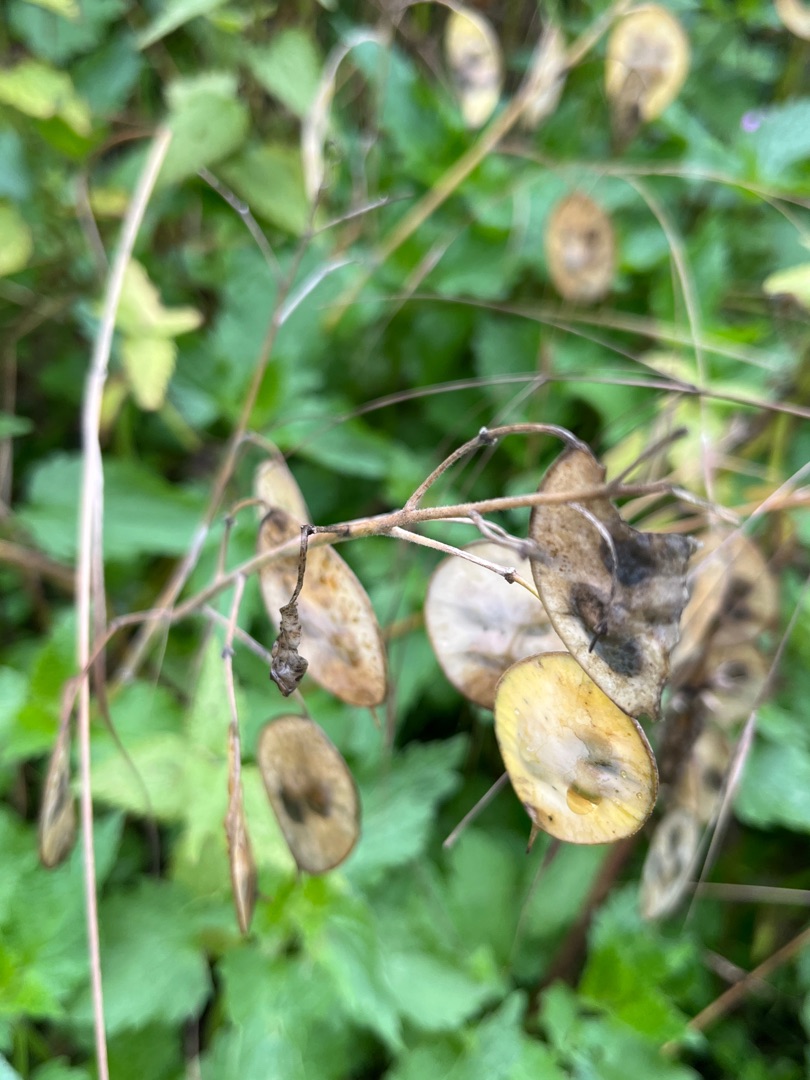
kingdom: Plantae
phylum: Tracheophyta
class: Magnoliopsida
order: Brassicales
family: Brassicaceae
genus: Lunaria
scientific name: Lunaria annua
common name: Judaspenge
